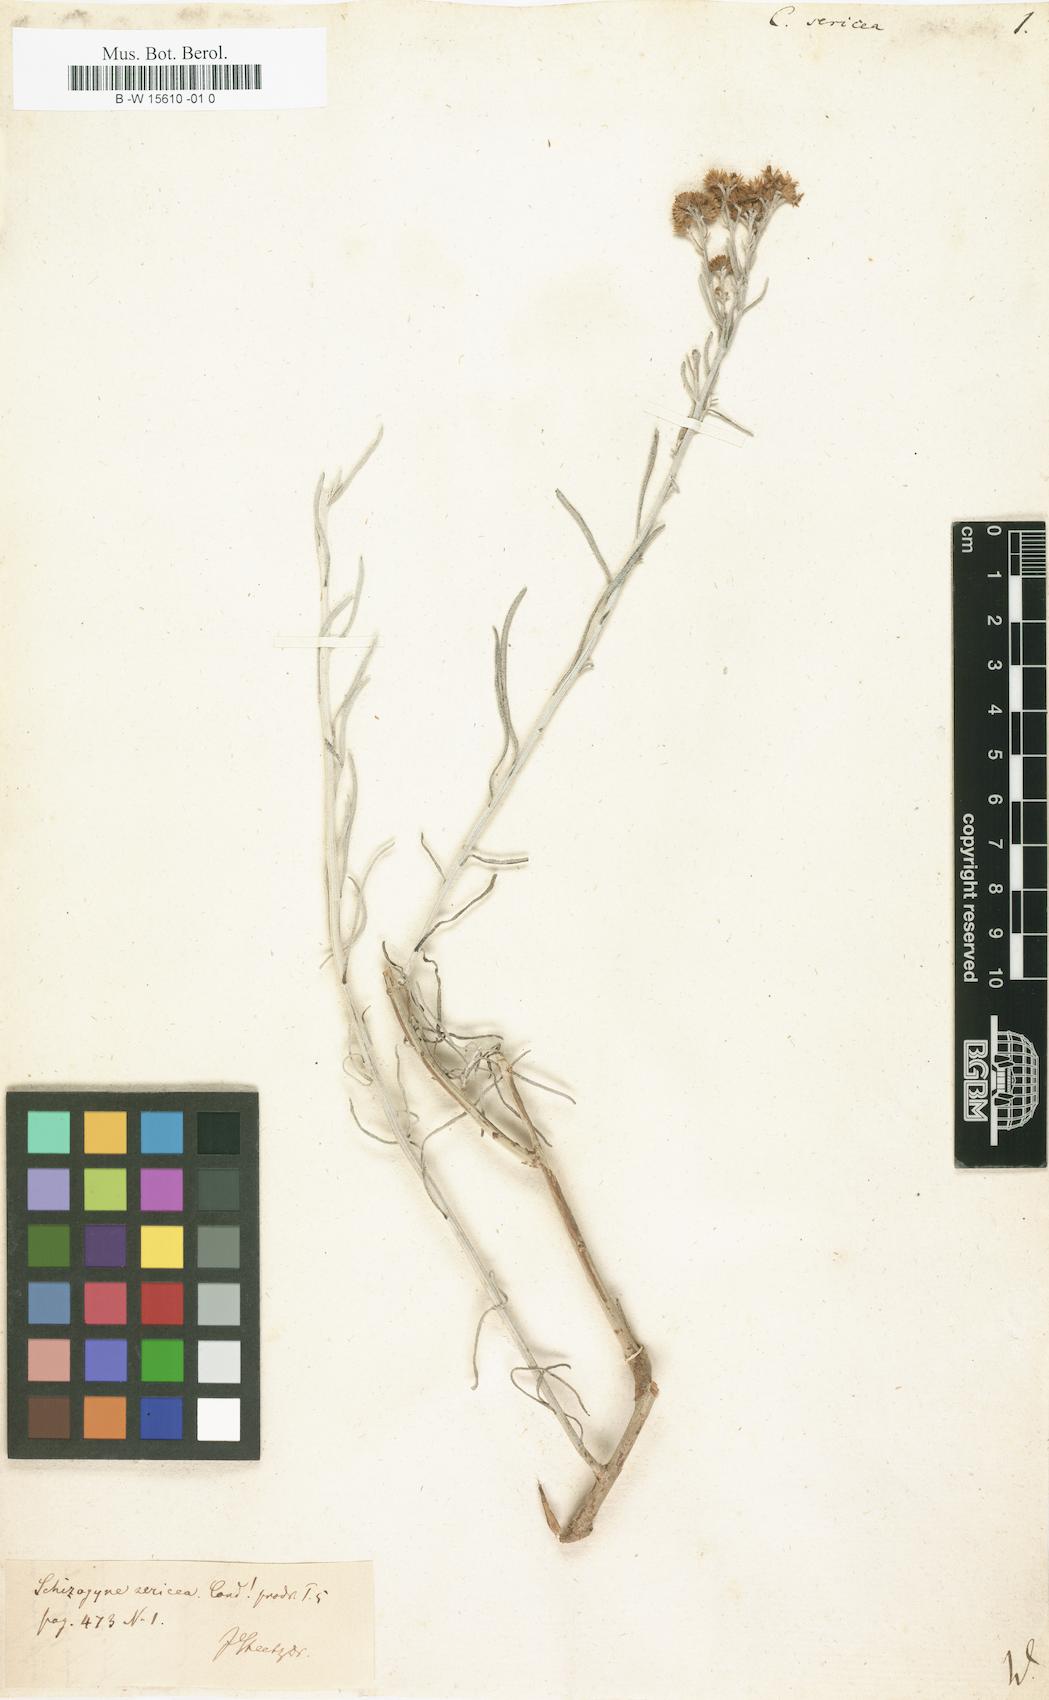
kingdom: Plantae
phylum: Tracheophyta
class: Magnoliopsida
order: Asterales
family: Asteraceae
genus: Conyza
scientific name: Conyza sericea
